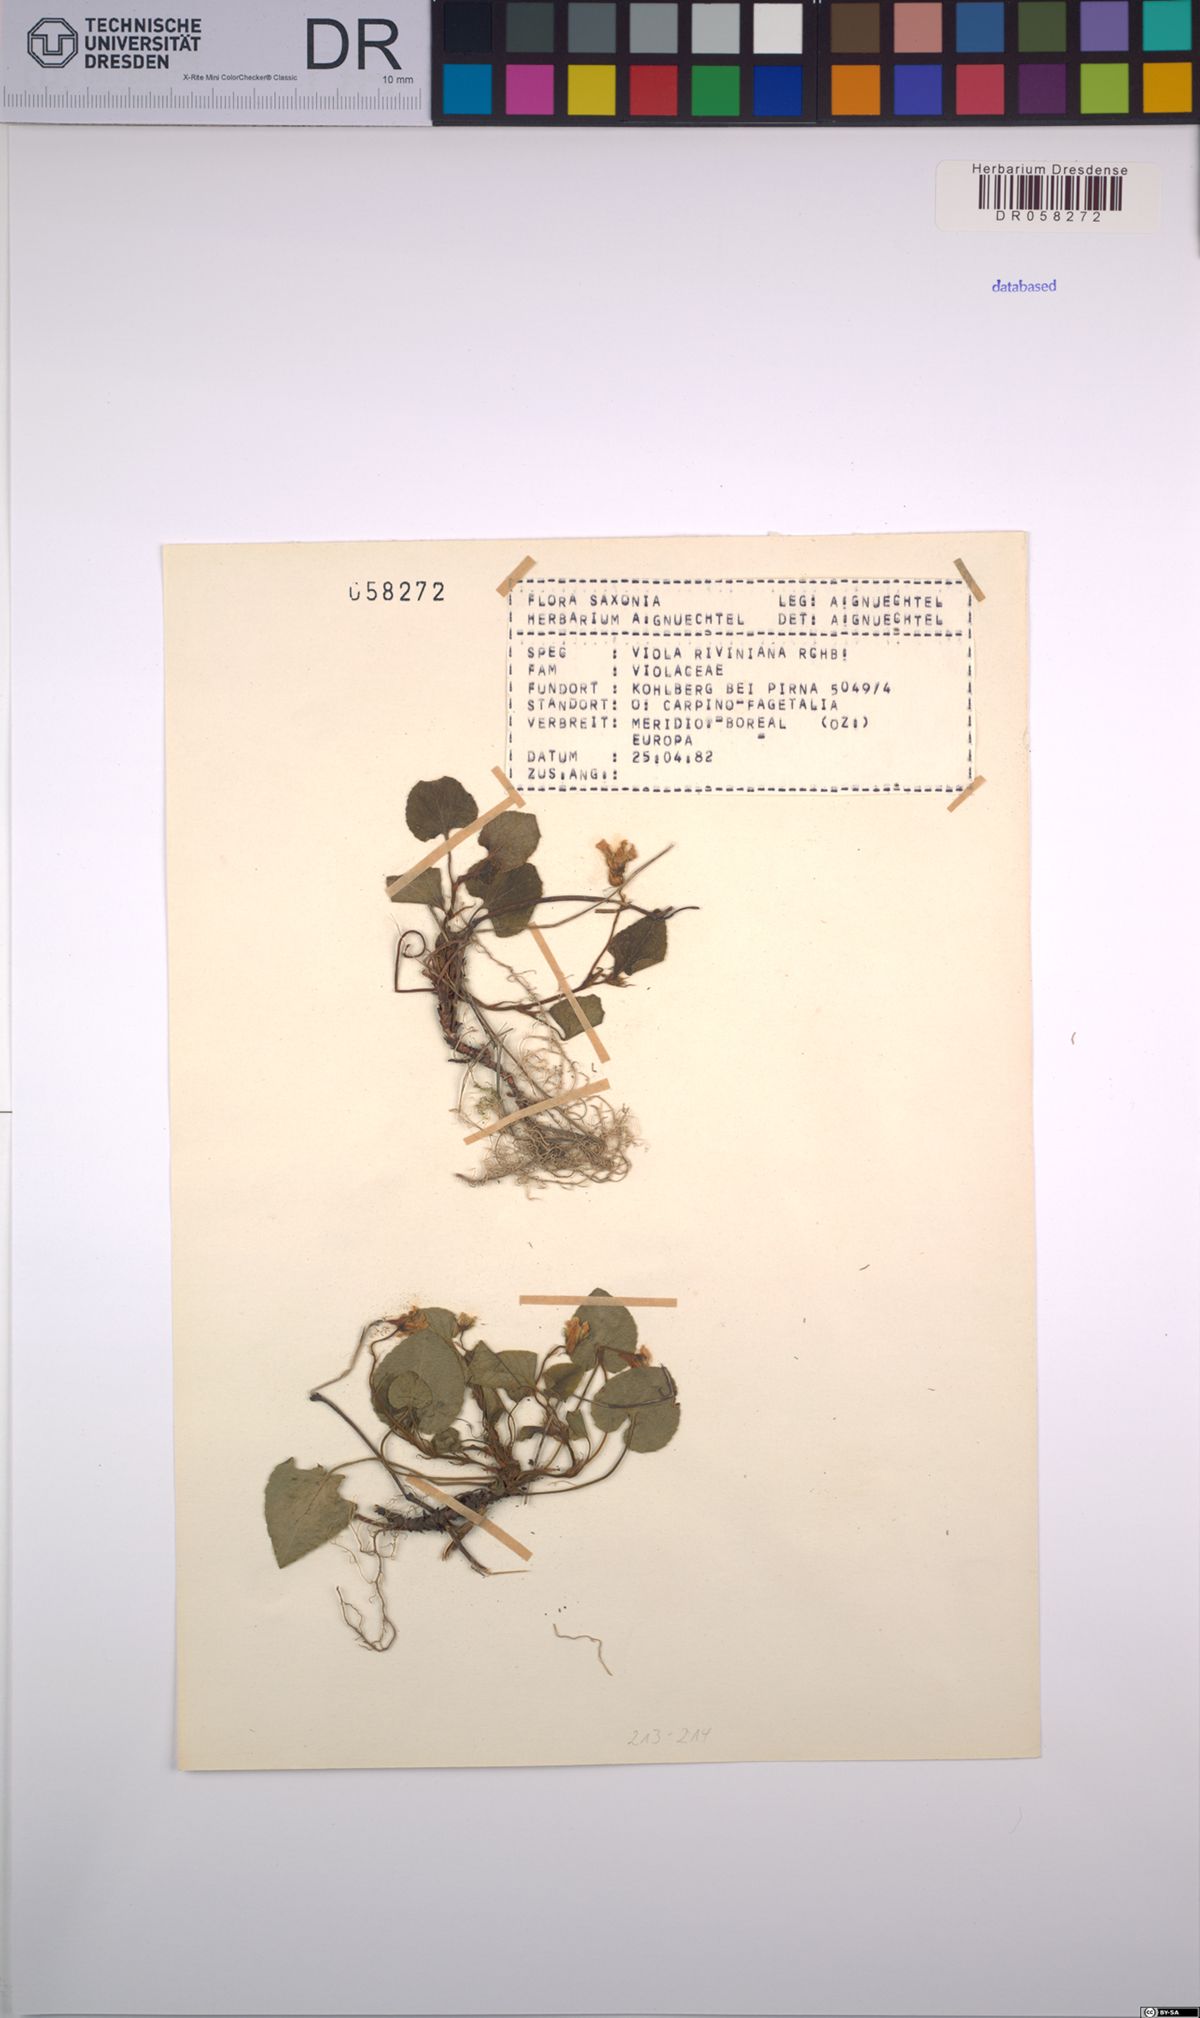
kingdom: Plantae
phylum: Tracheophyta
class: Magnoliopsida
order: Malpighiales
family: Violaceae
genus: Viola
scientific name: Viola riviniana
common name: Common dog-violet
